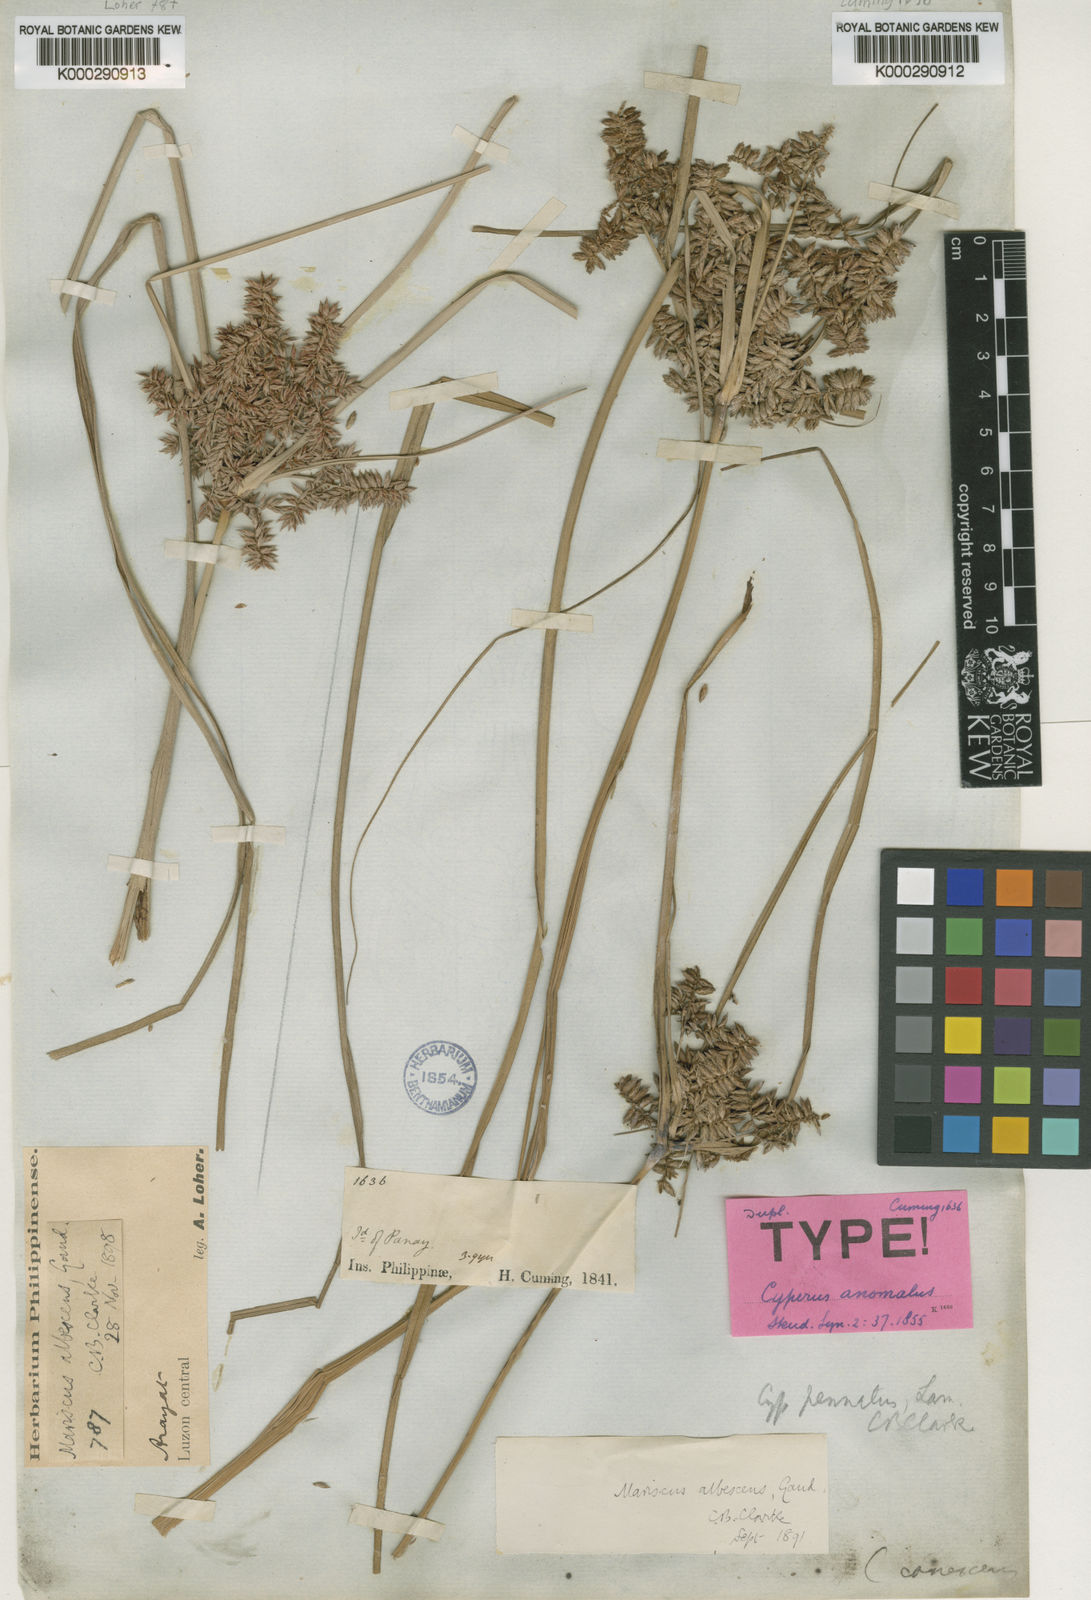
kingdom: Plantae
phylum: Tracheophyta
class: Liliopsida
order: Poales
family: Cyperaceae
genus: Cyperus
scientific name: Cyperus javanicus
